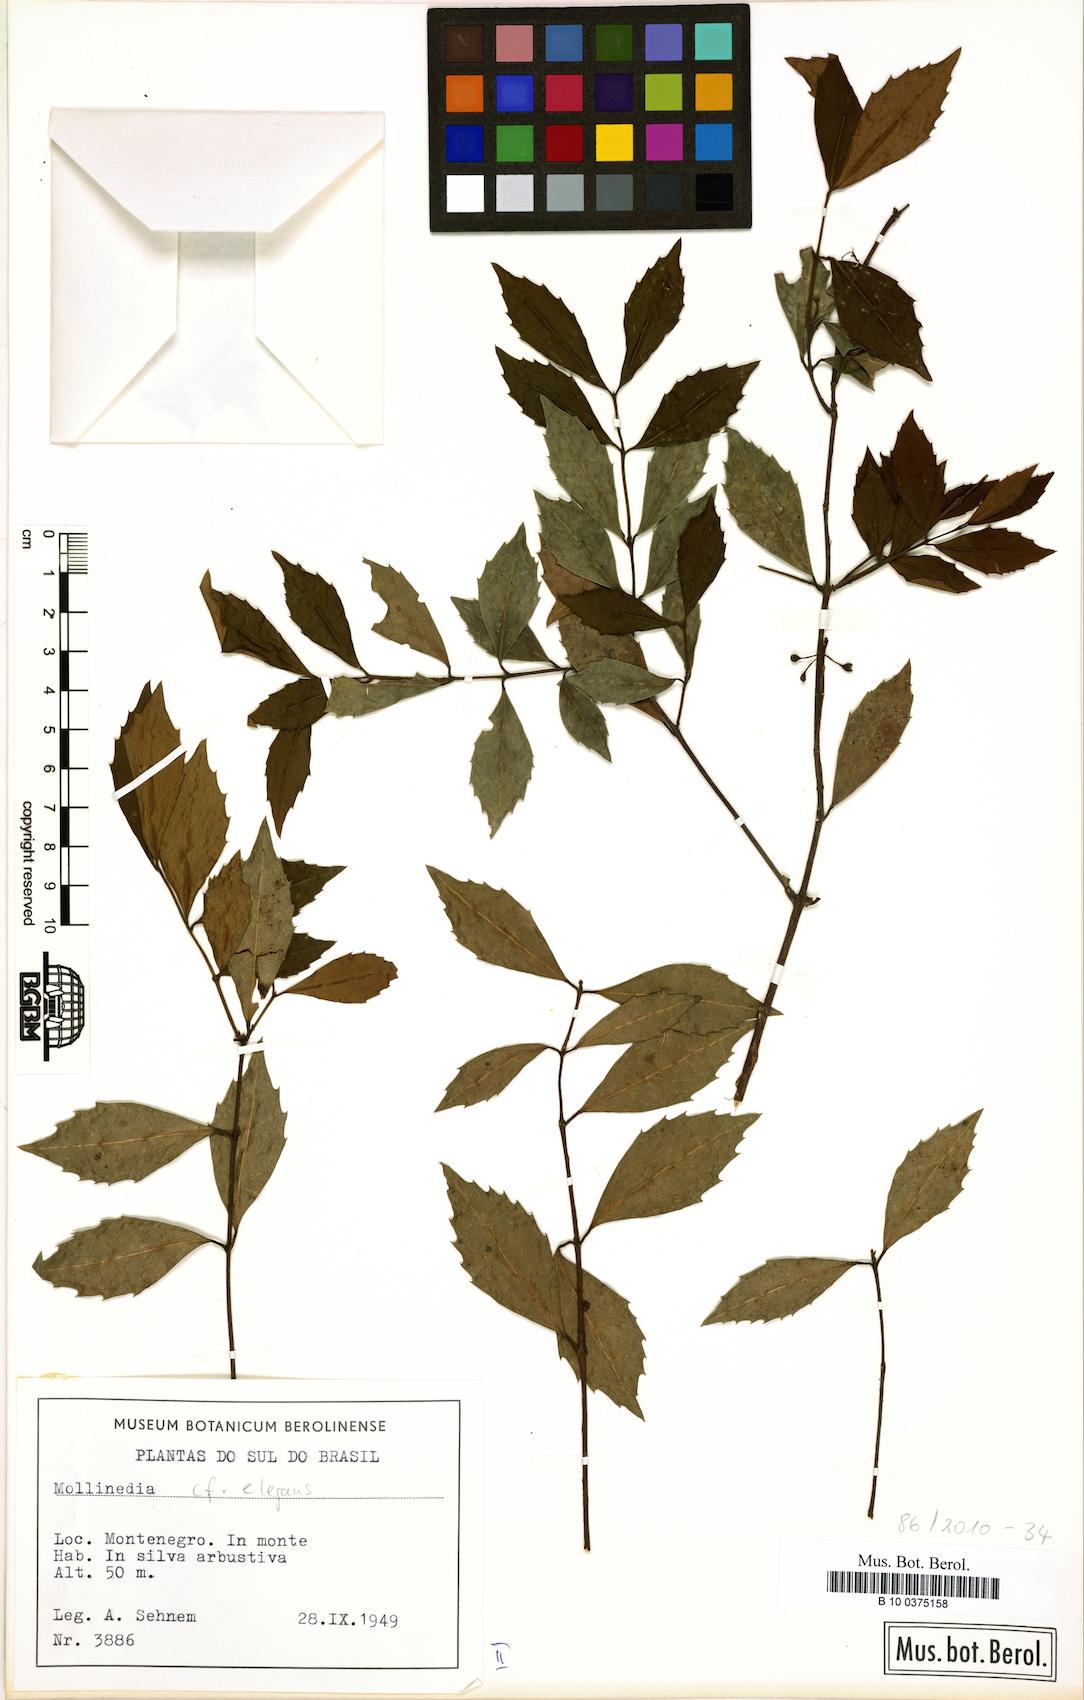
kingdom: Plantae
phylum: Tracheophyta
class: Magnoliopsida
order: Laurales
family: Monimiaceae
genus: Mollinedia
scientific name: Mollinedia elegans
